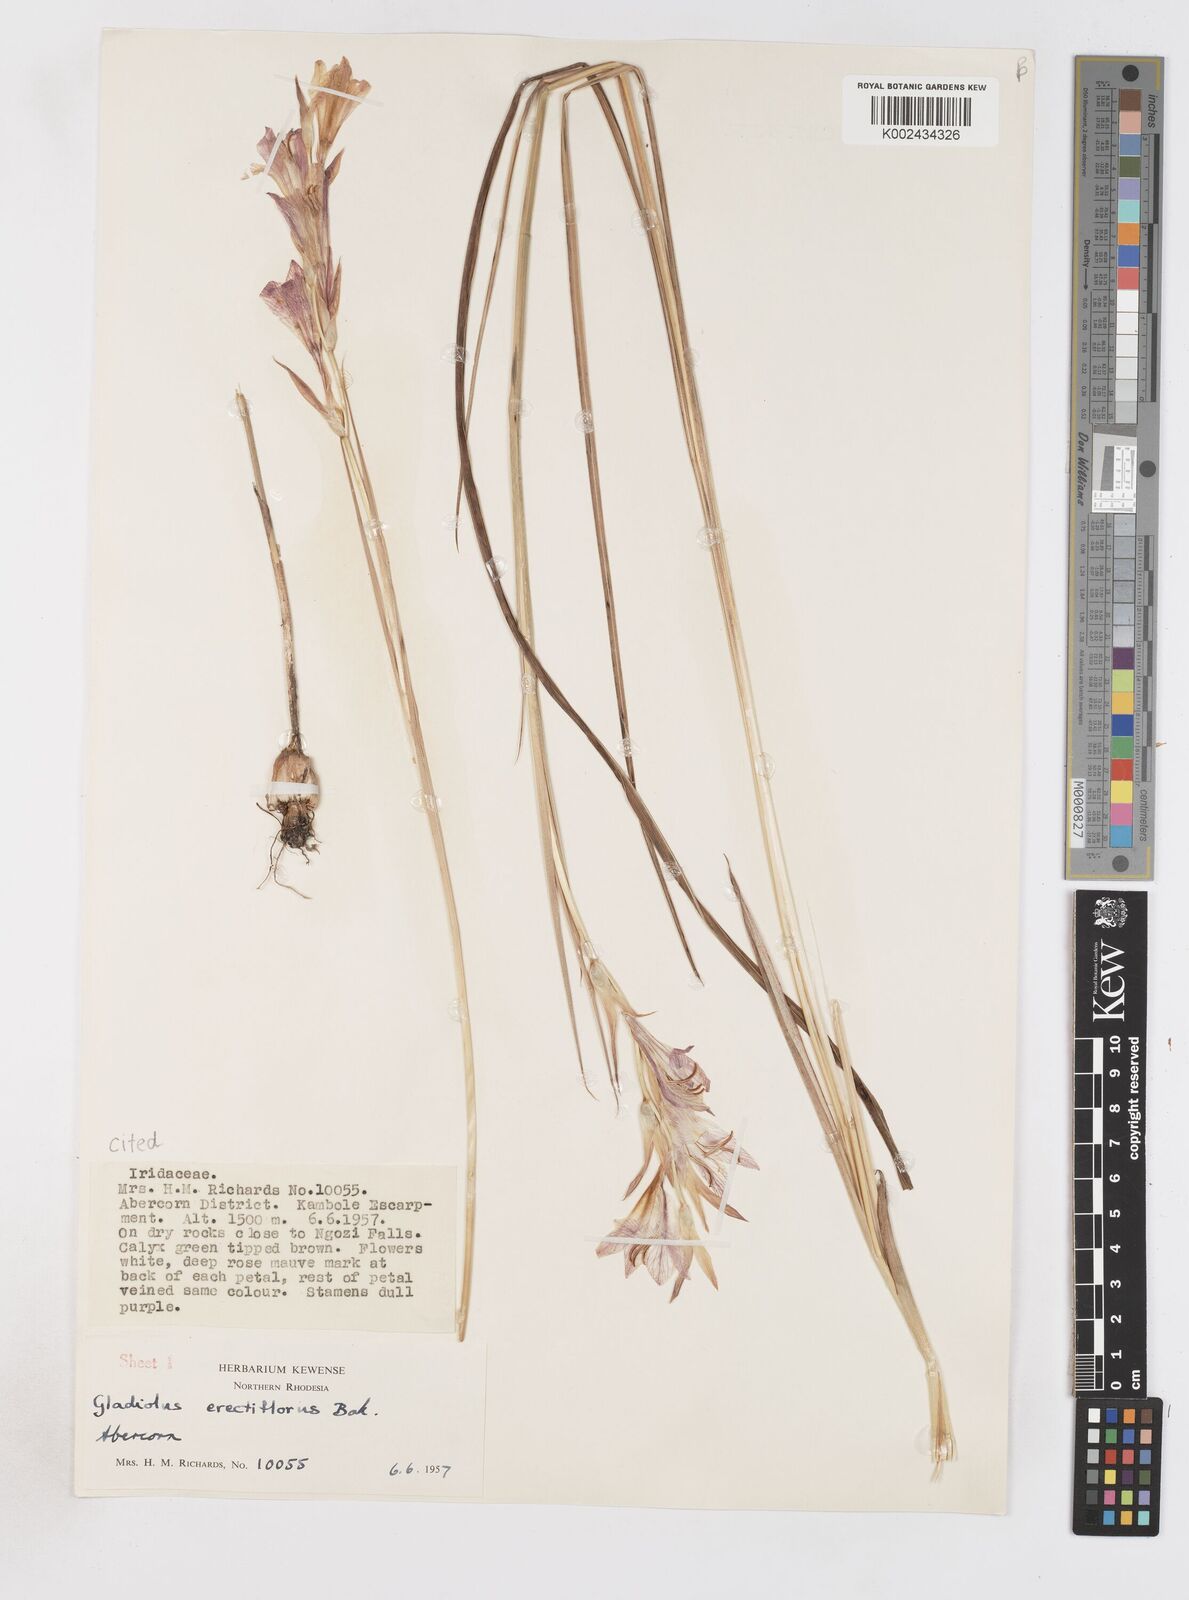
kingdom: Plantae
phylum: Tracheophyta
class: Liliopsida
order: Asparagales
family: Iridaceae
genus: Gladiolus
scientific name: Gladiolus erectiflorus
